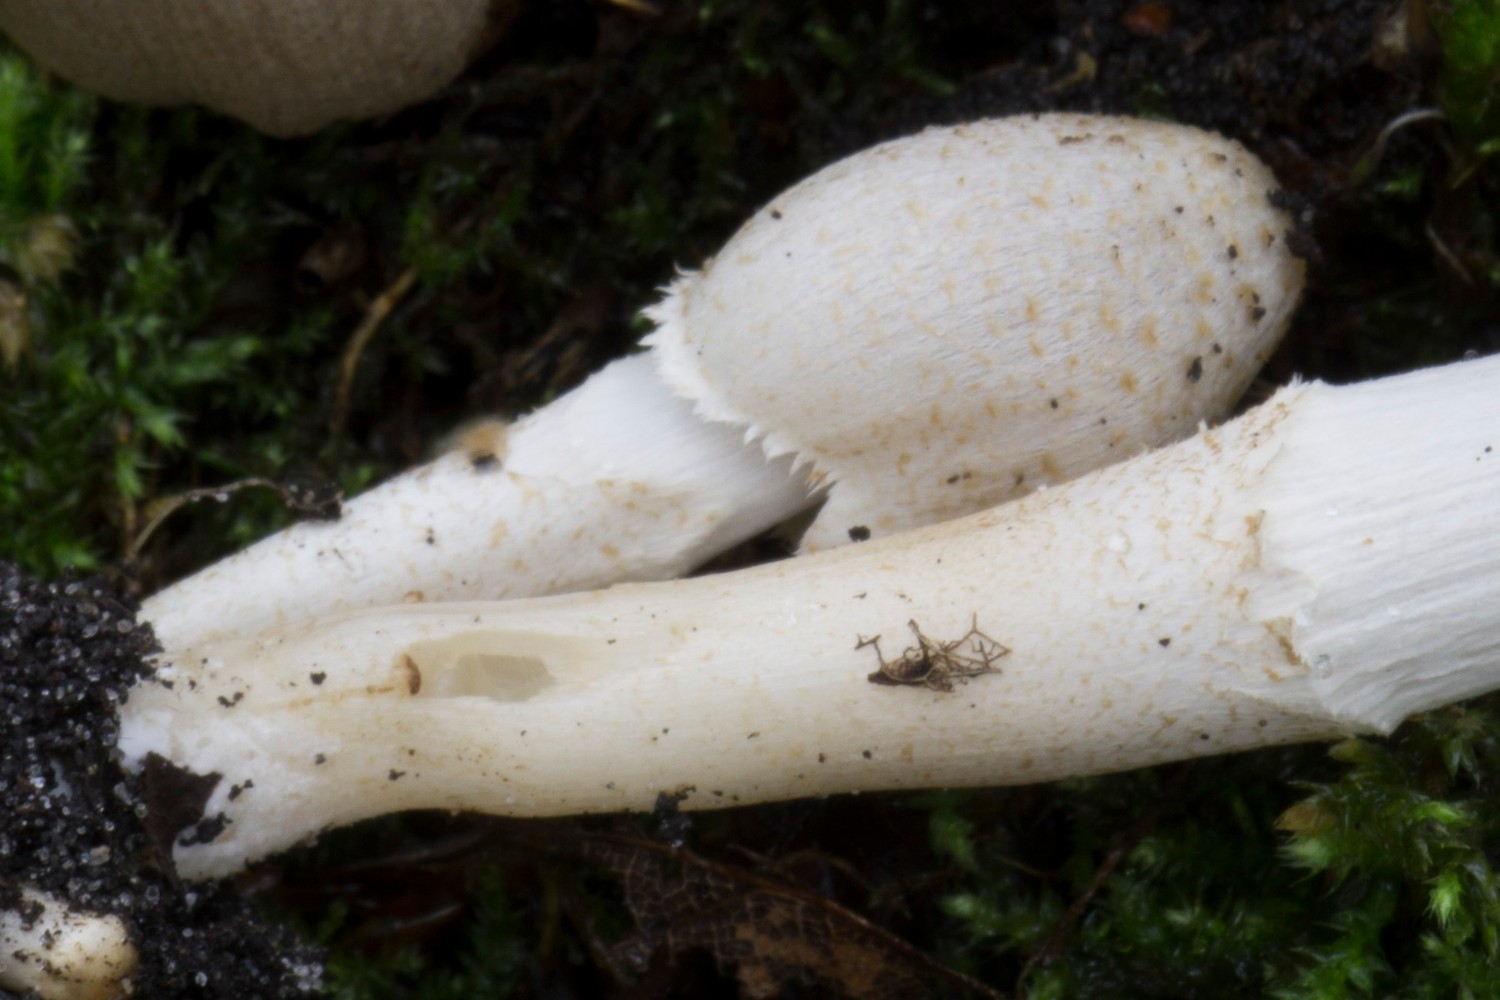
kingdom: Fungi
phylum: Basidiomycota
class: Agaricomycetes
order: Agaricales
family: Psathyrellaceae
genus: Coprinopsis
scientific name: Coprinopsis romagnesiana
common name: brunskællet blækhat
